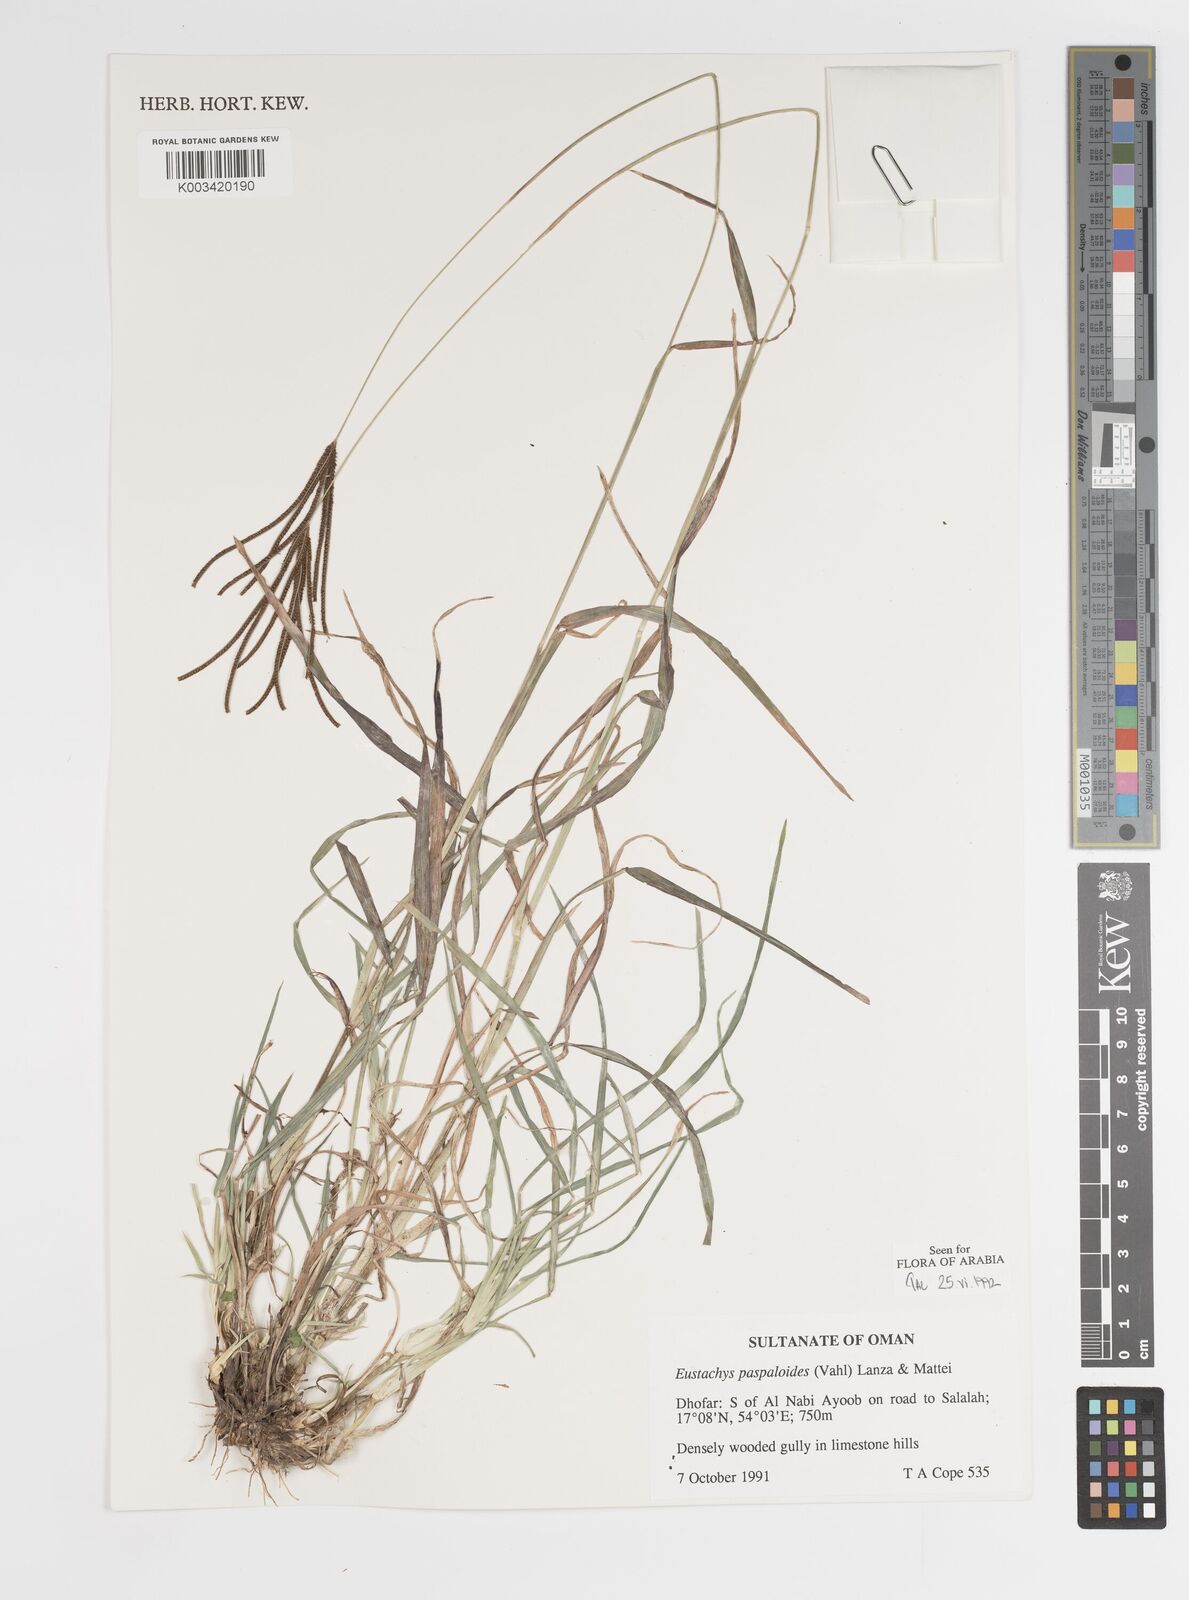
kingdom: Plantae
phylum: Tracheophyta
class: Liliopsida
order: Poales
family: Poaceae
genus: Eustachys
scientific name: Eustachys paspaloides
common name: Caribbean fingergrass
